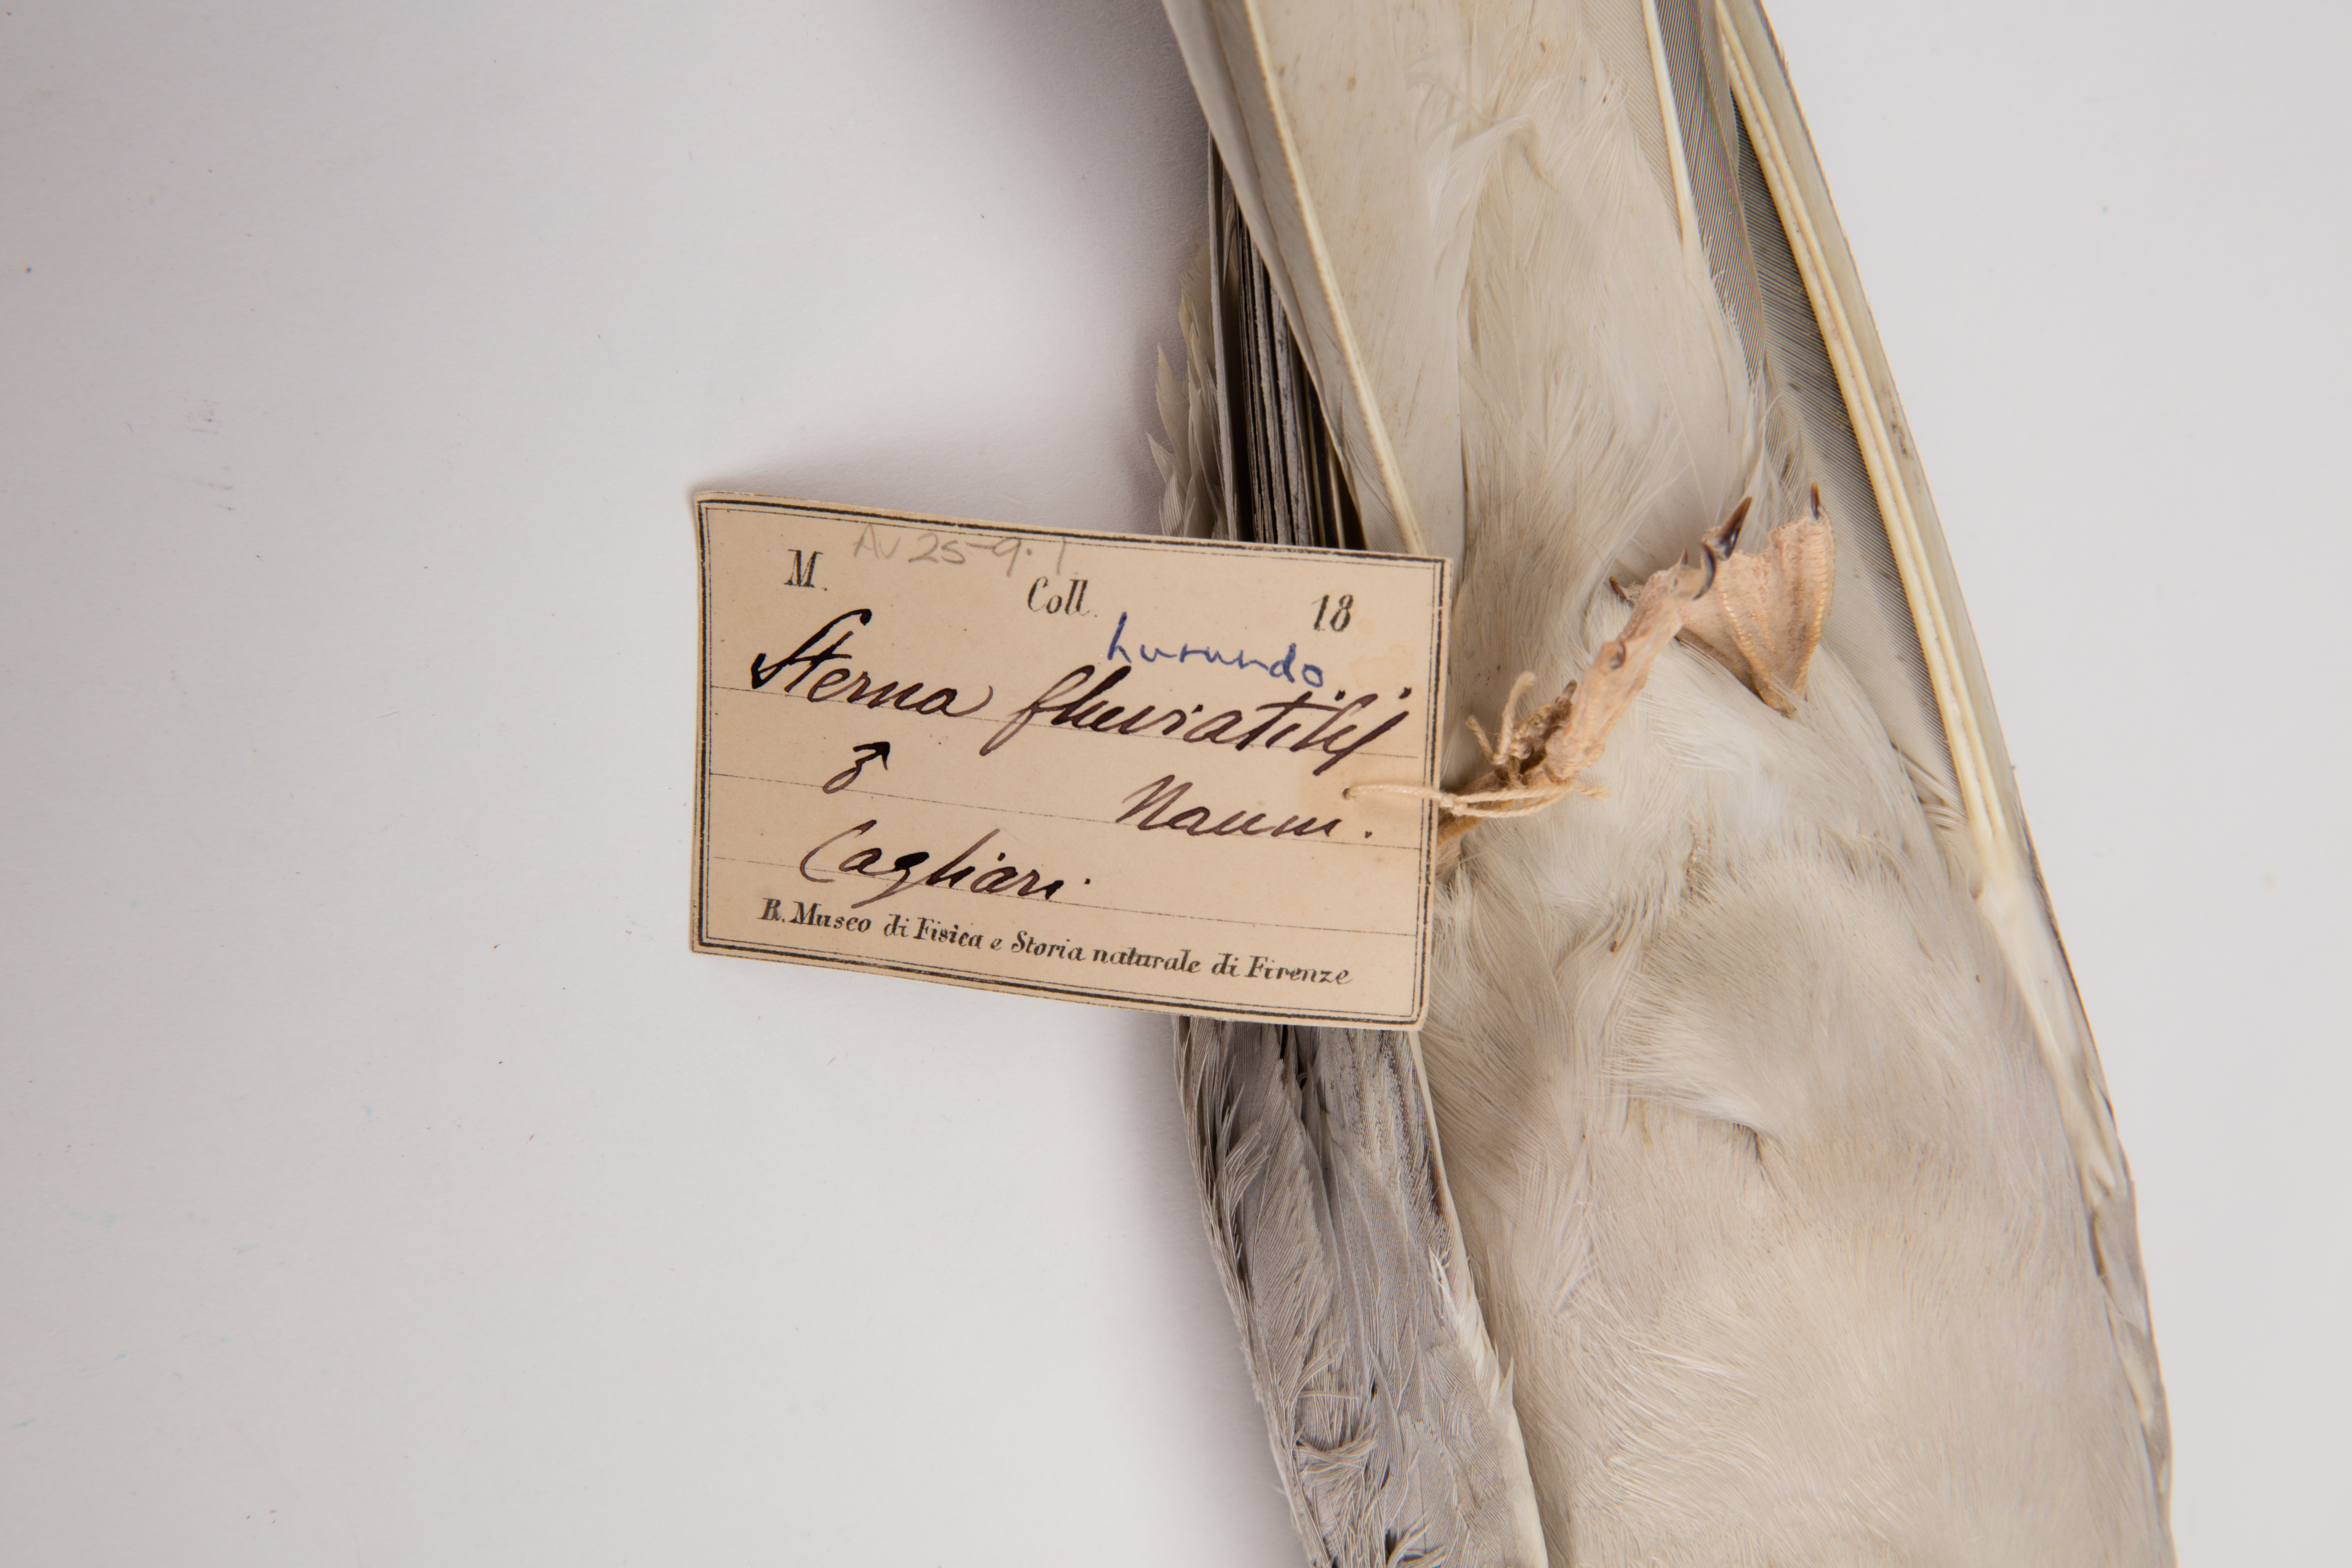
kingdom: Animalia
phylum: Chordata
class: Aves
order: Charadriiformes
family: Laridae
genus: Sterna
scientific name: Sterna hirundo
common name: Common tern
